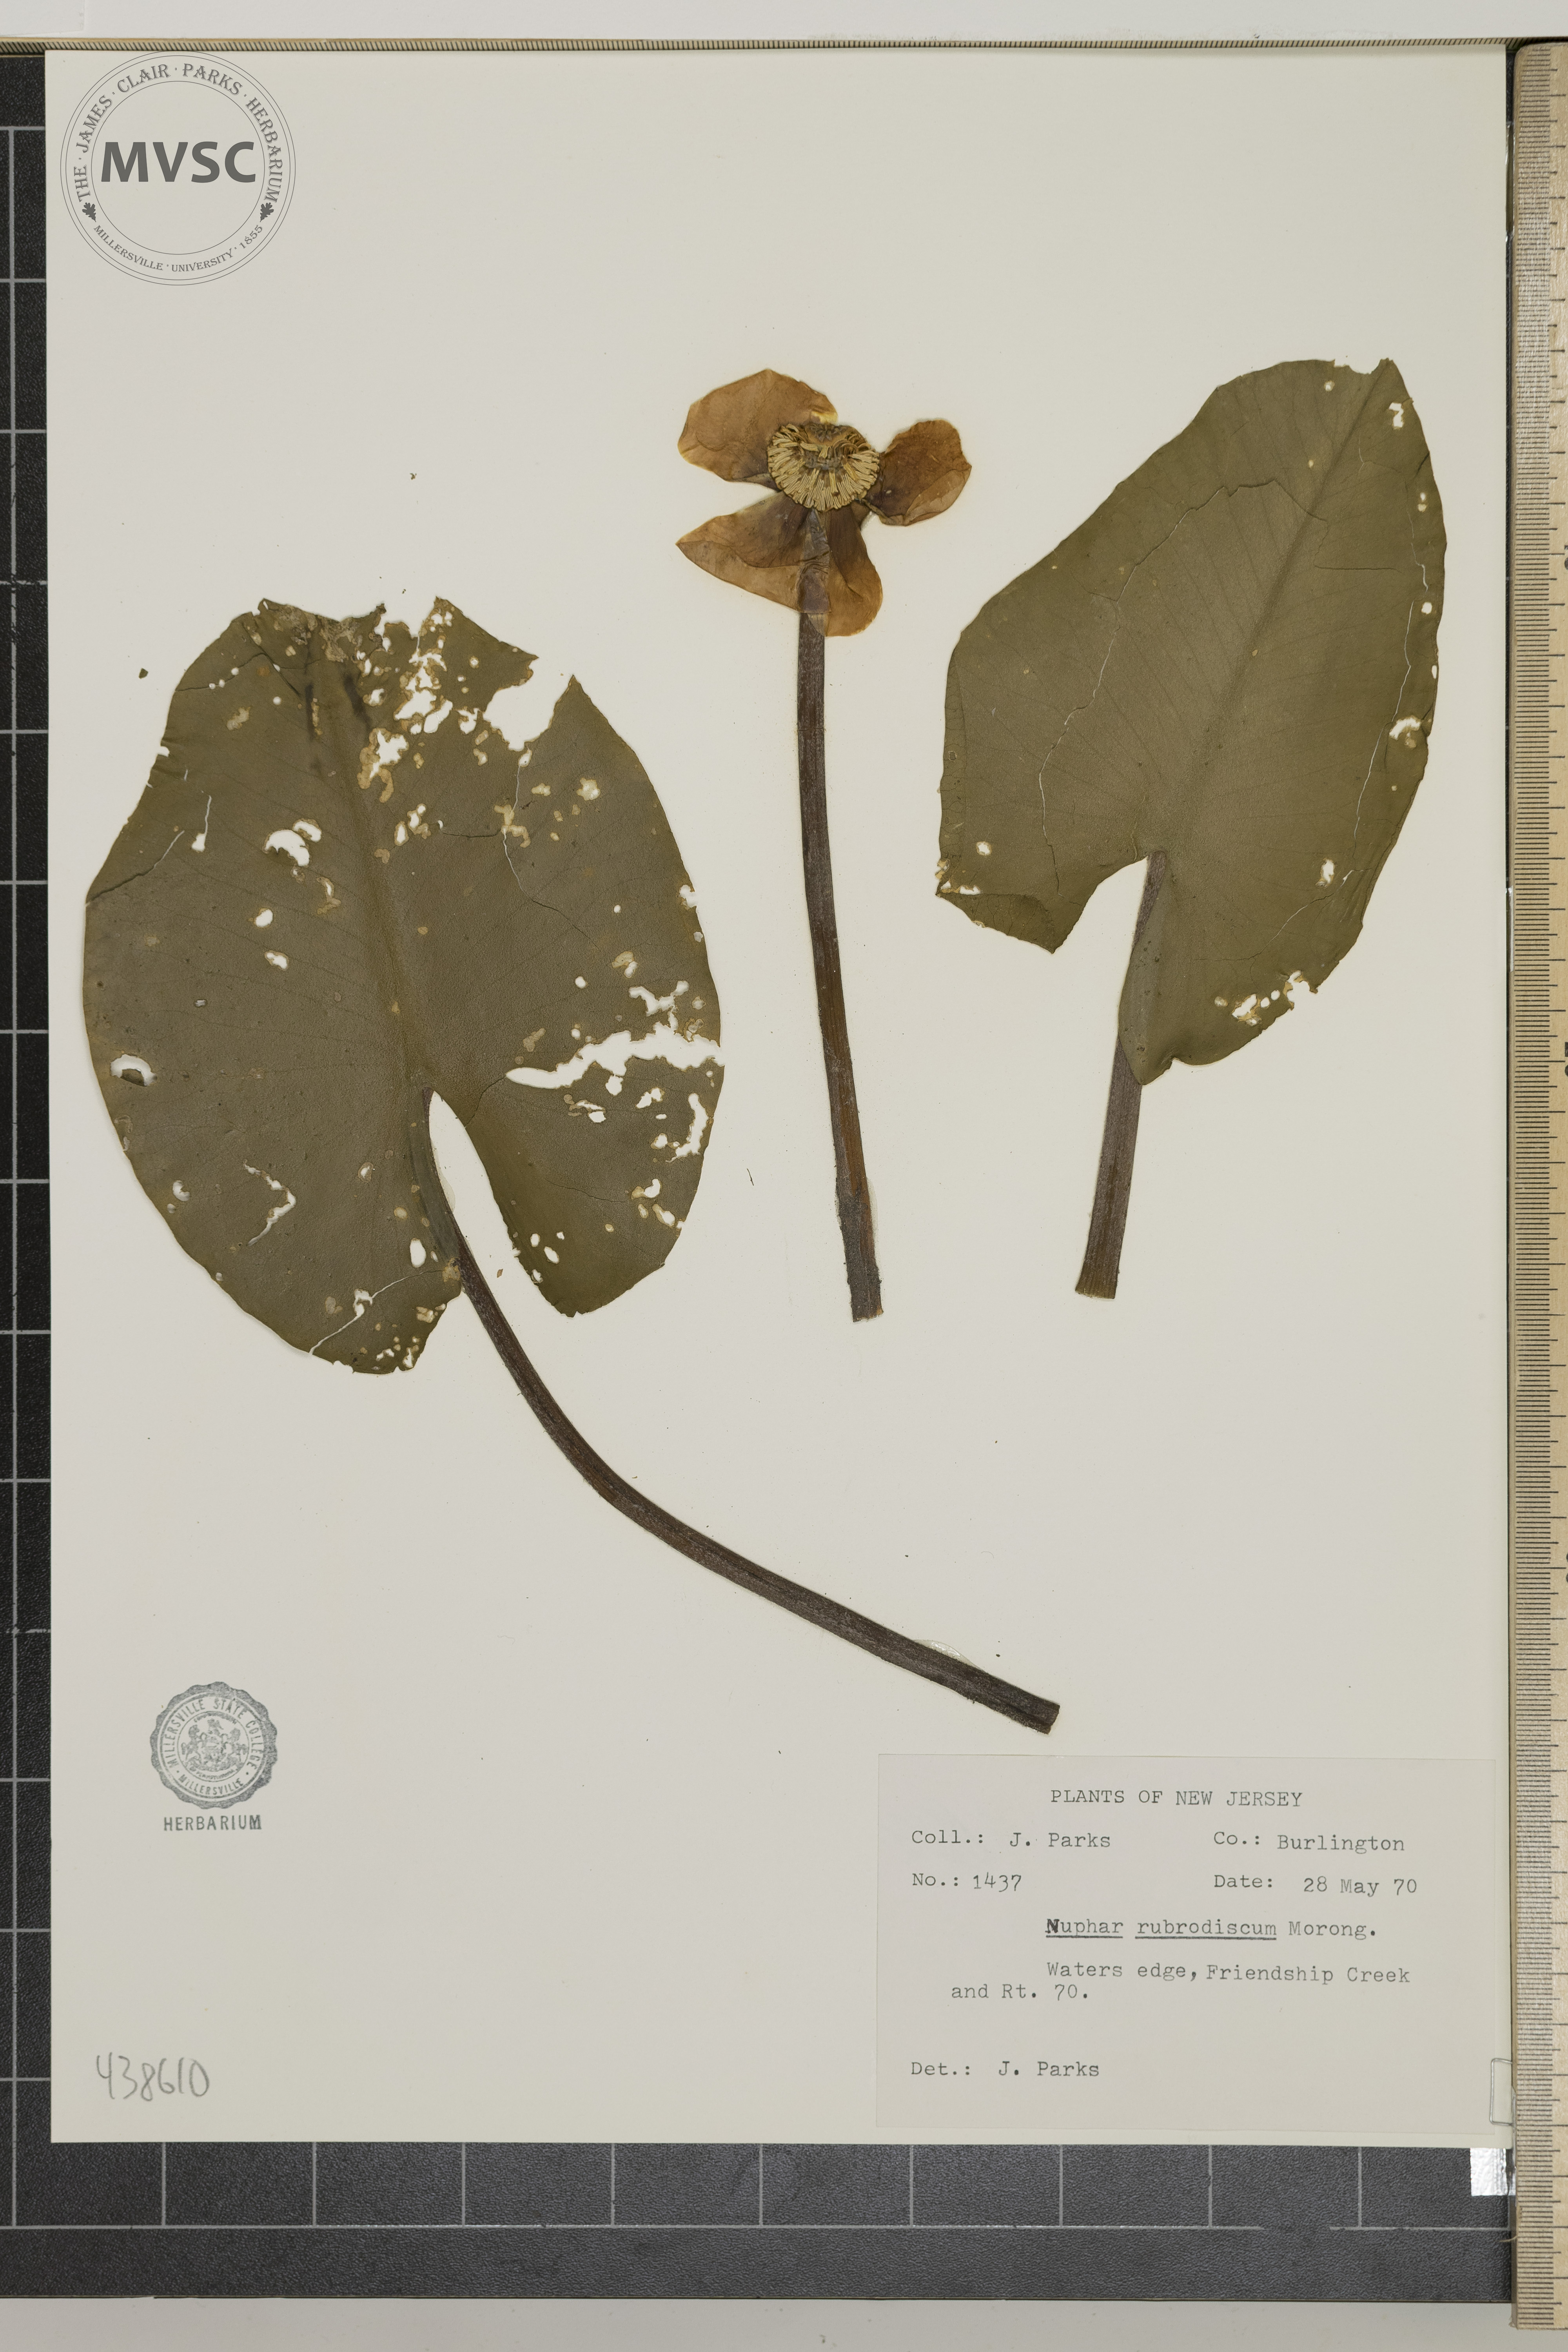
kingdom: Plantae
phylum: Tracheophyta
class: Magnoliopsida
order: Nymphaeales
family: Nymphaeaceae
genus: Nuphar
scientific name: Nuphar rubrodisca
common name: Yellow pond-lily
